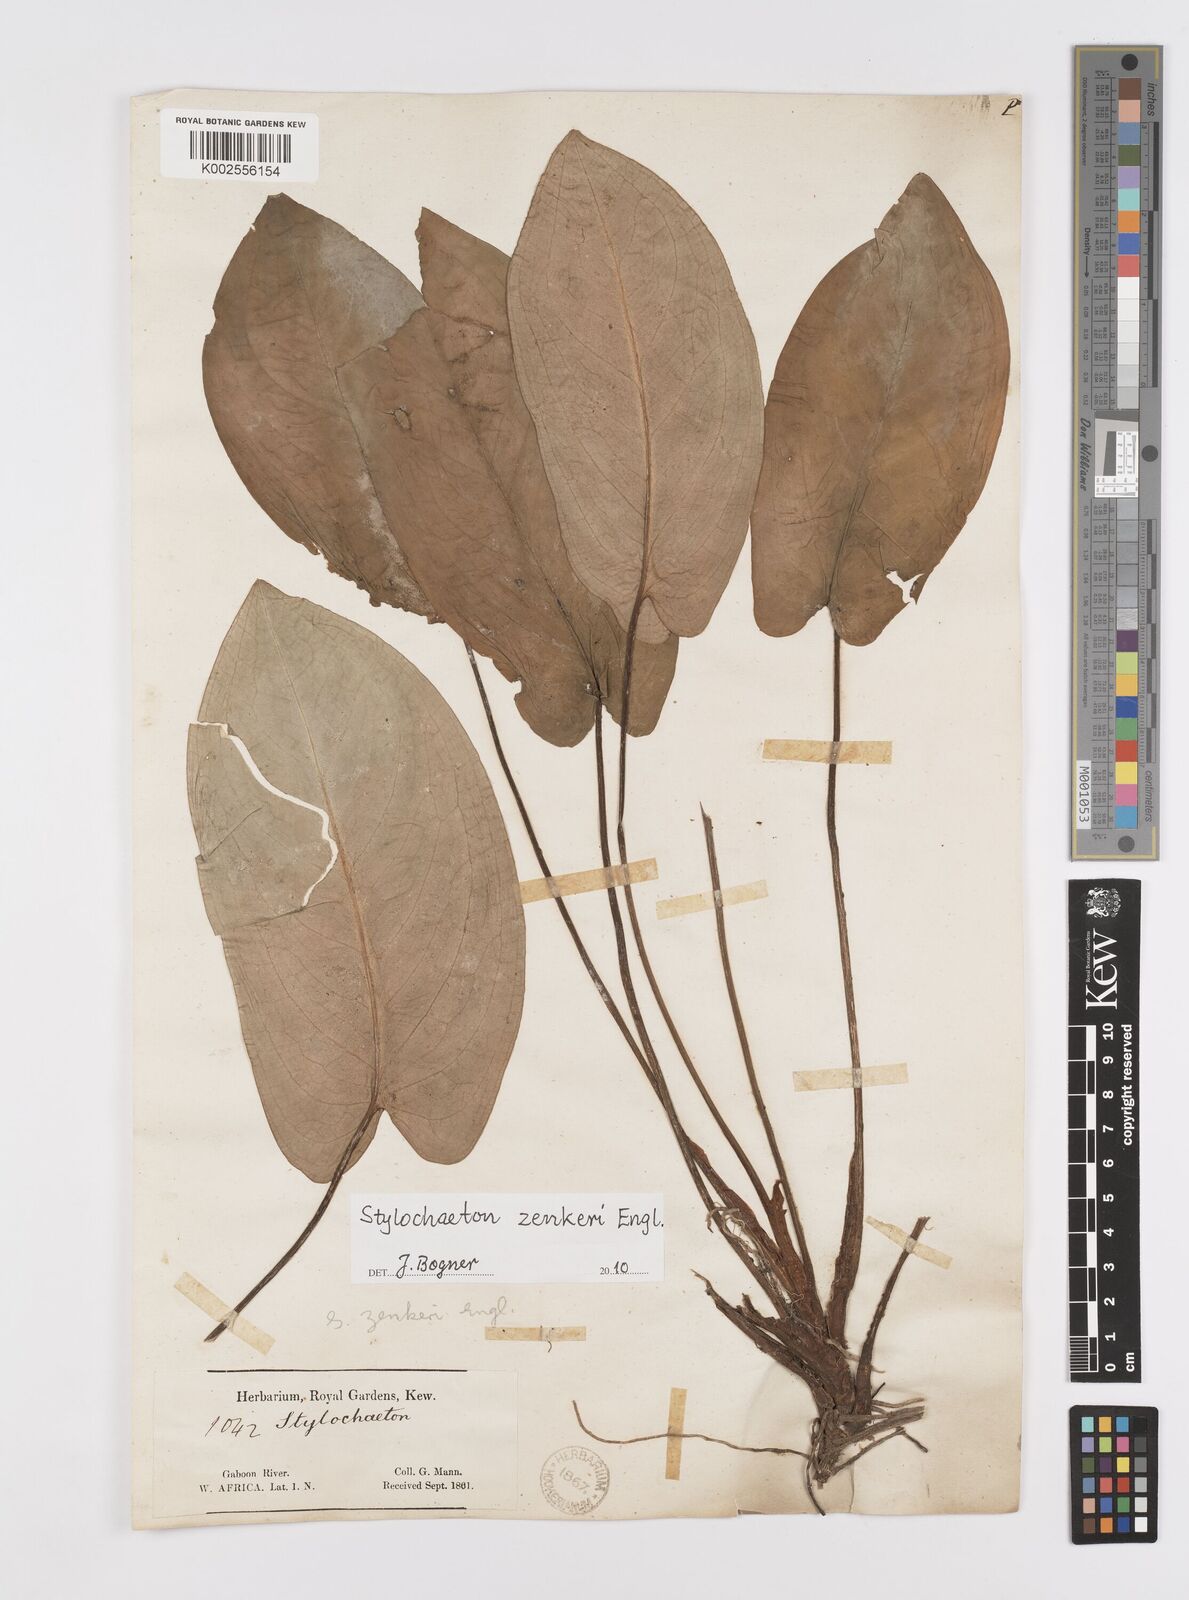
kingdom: Plantae
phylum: Tracheophyta
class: Liliopsida
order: Alismatales
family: Araceae
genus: Stylochaeton
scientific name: Stylochaeton zenkeri
